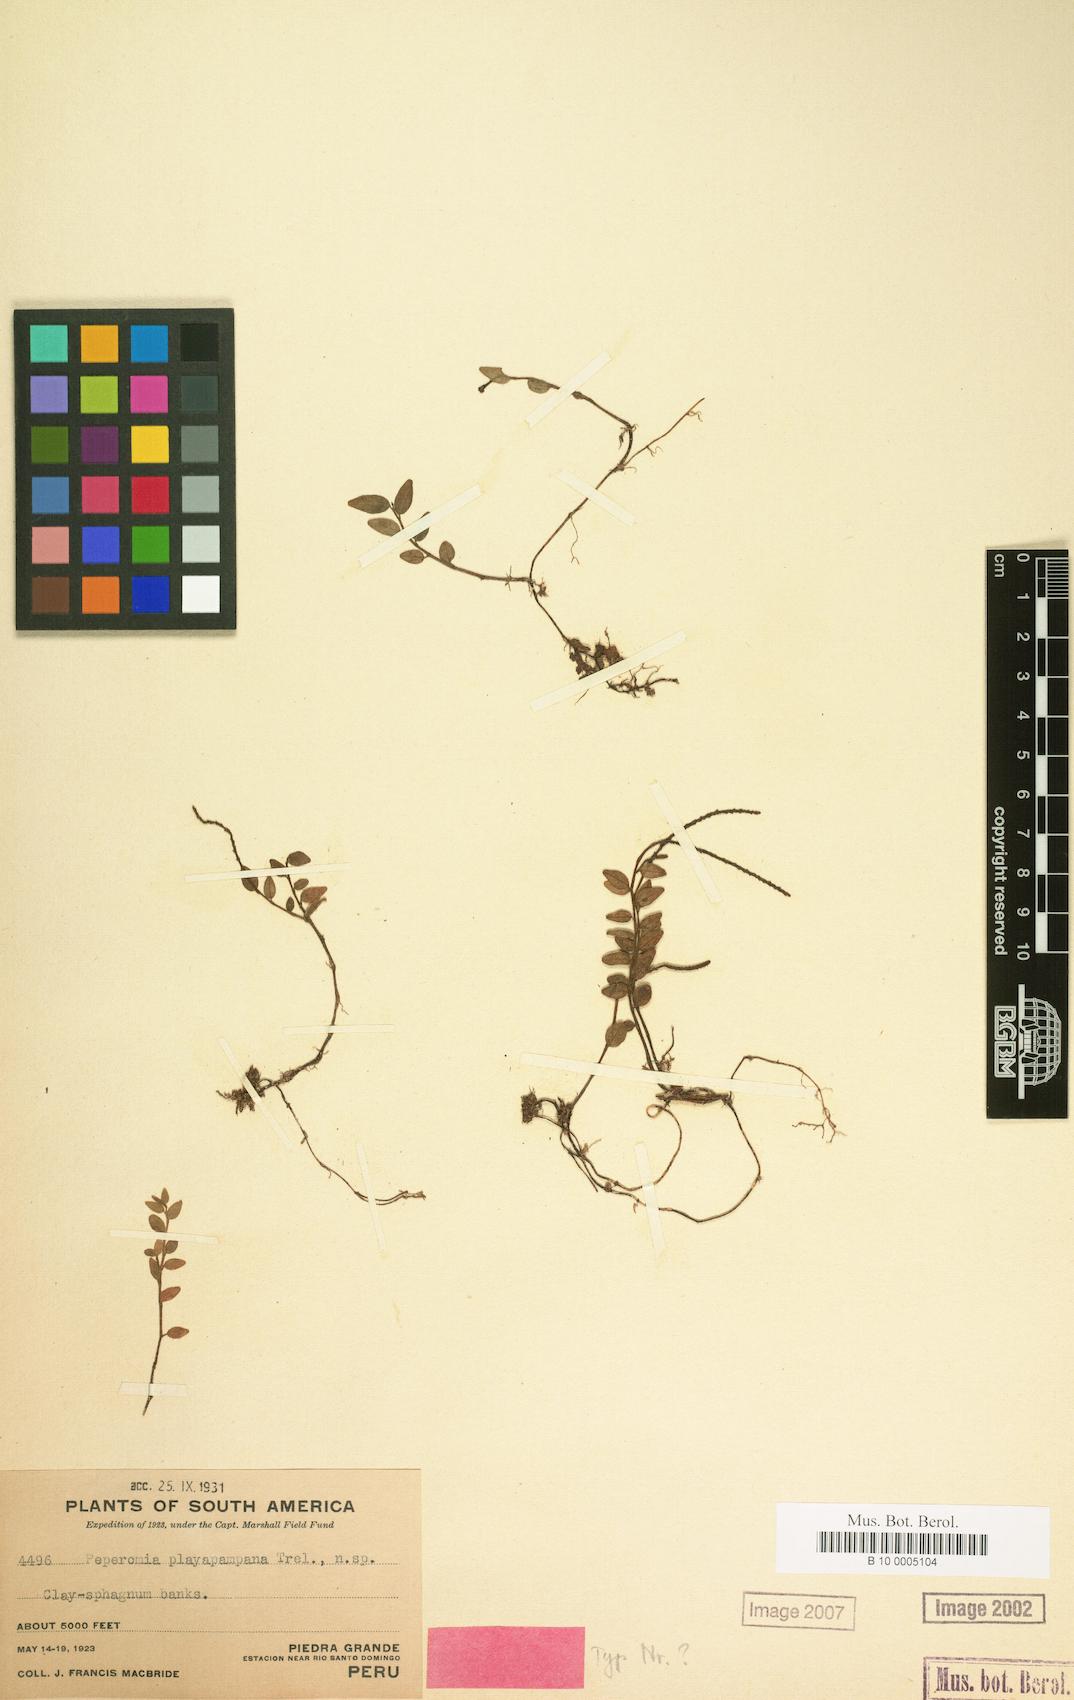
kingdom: Plantae
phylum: Tracheophyta
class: Magnoliopsida
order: Piperales
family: Piperaceae
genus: Peperomia
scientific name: Peperomia playapampana
